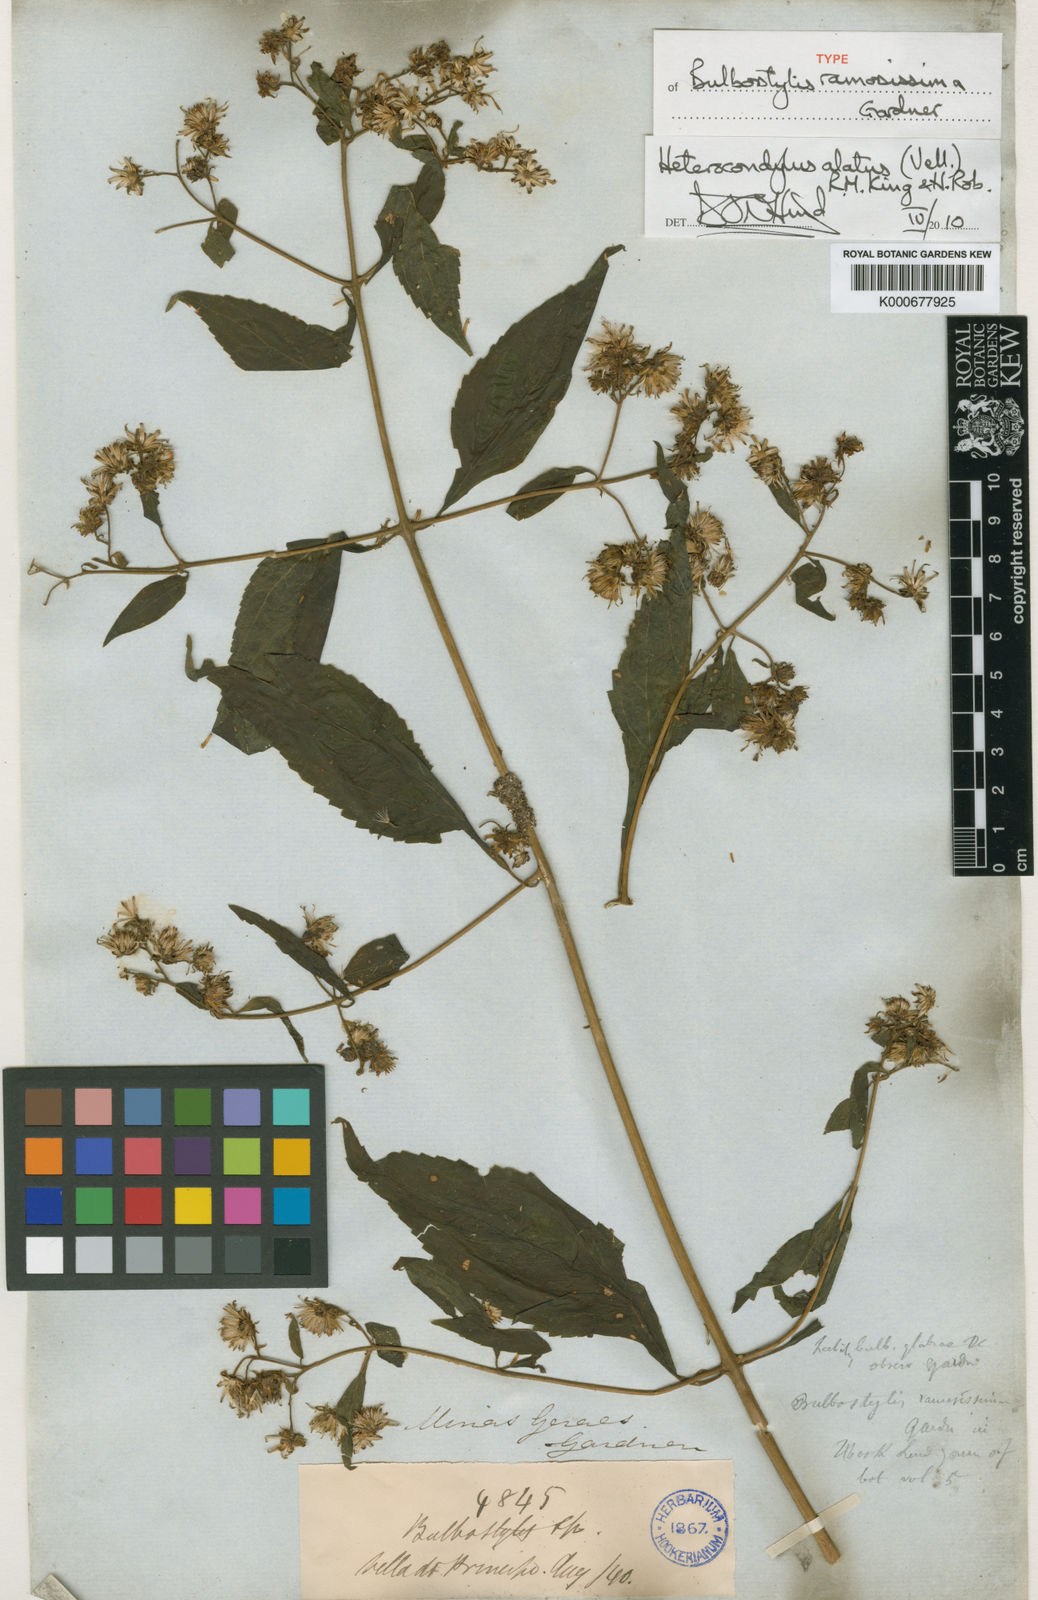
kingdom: Plantae
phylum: Tracheophyta
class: Magnoliopsida
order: Asterales
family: Asteraceae
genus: Heterocondylus
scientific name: Heterocondylus alatus
